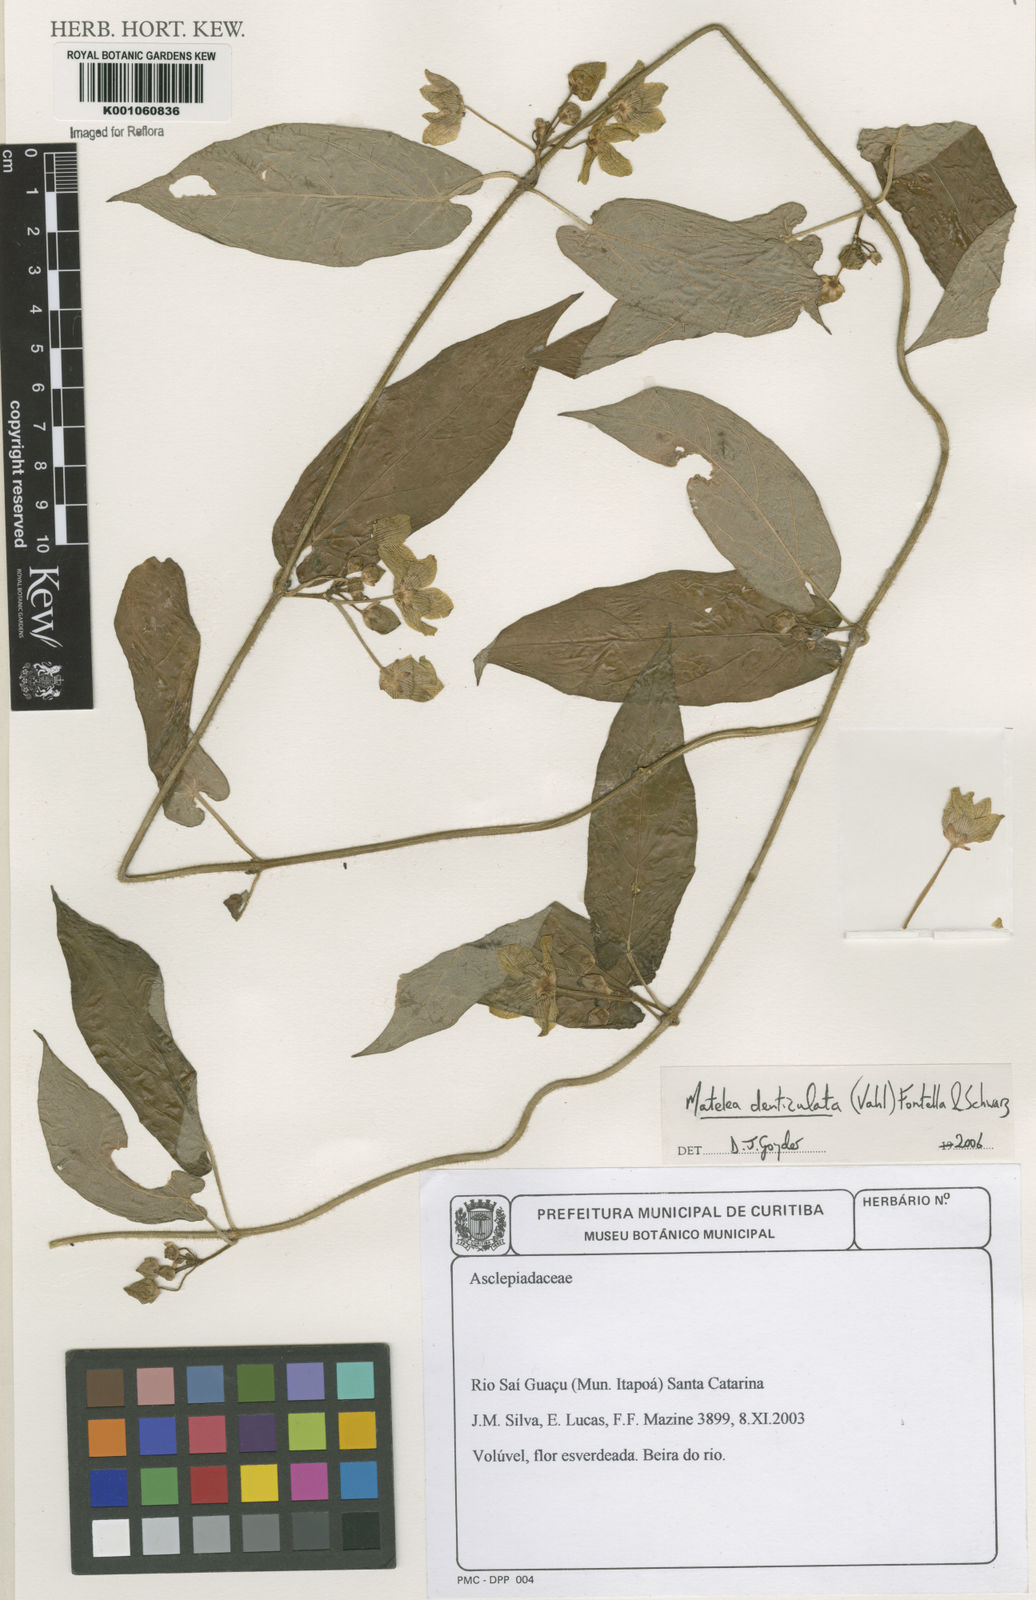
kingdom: Plantae
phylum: Tracheophyta
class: Magnoliopsida
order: Gentianales
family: Apocynaceae
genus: Chloropetalum
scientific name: Chloropetalum denticulatum
